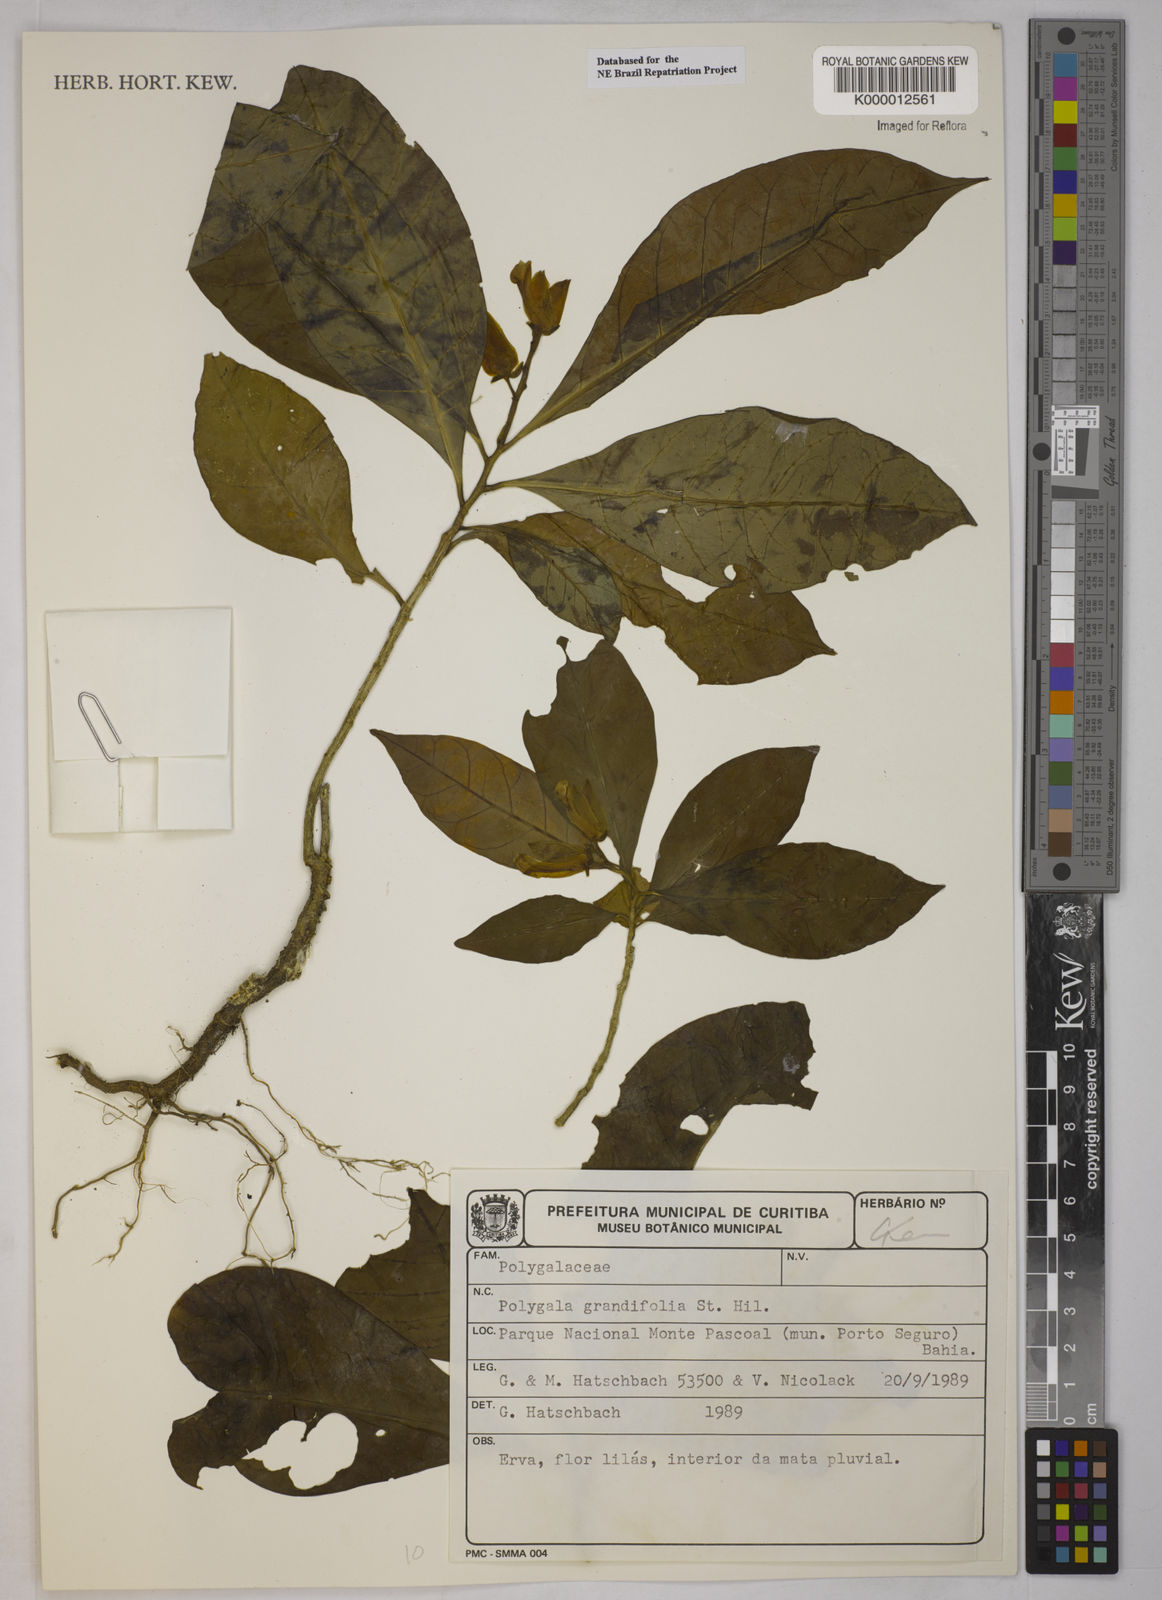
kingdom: Plantae
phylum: Tracheophyta
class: Magnoliopsida
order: Fabales
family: Polygalaceae
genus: Caamembeca
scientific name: Caamembeca grandifolia
